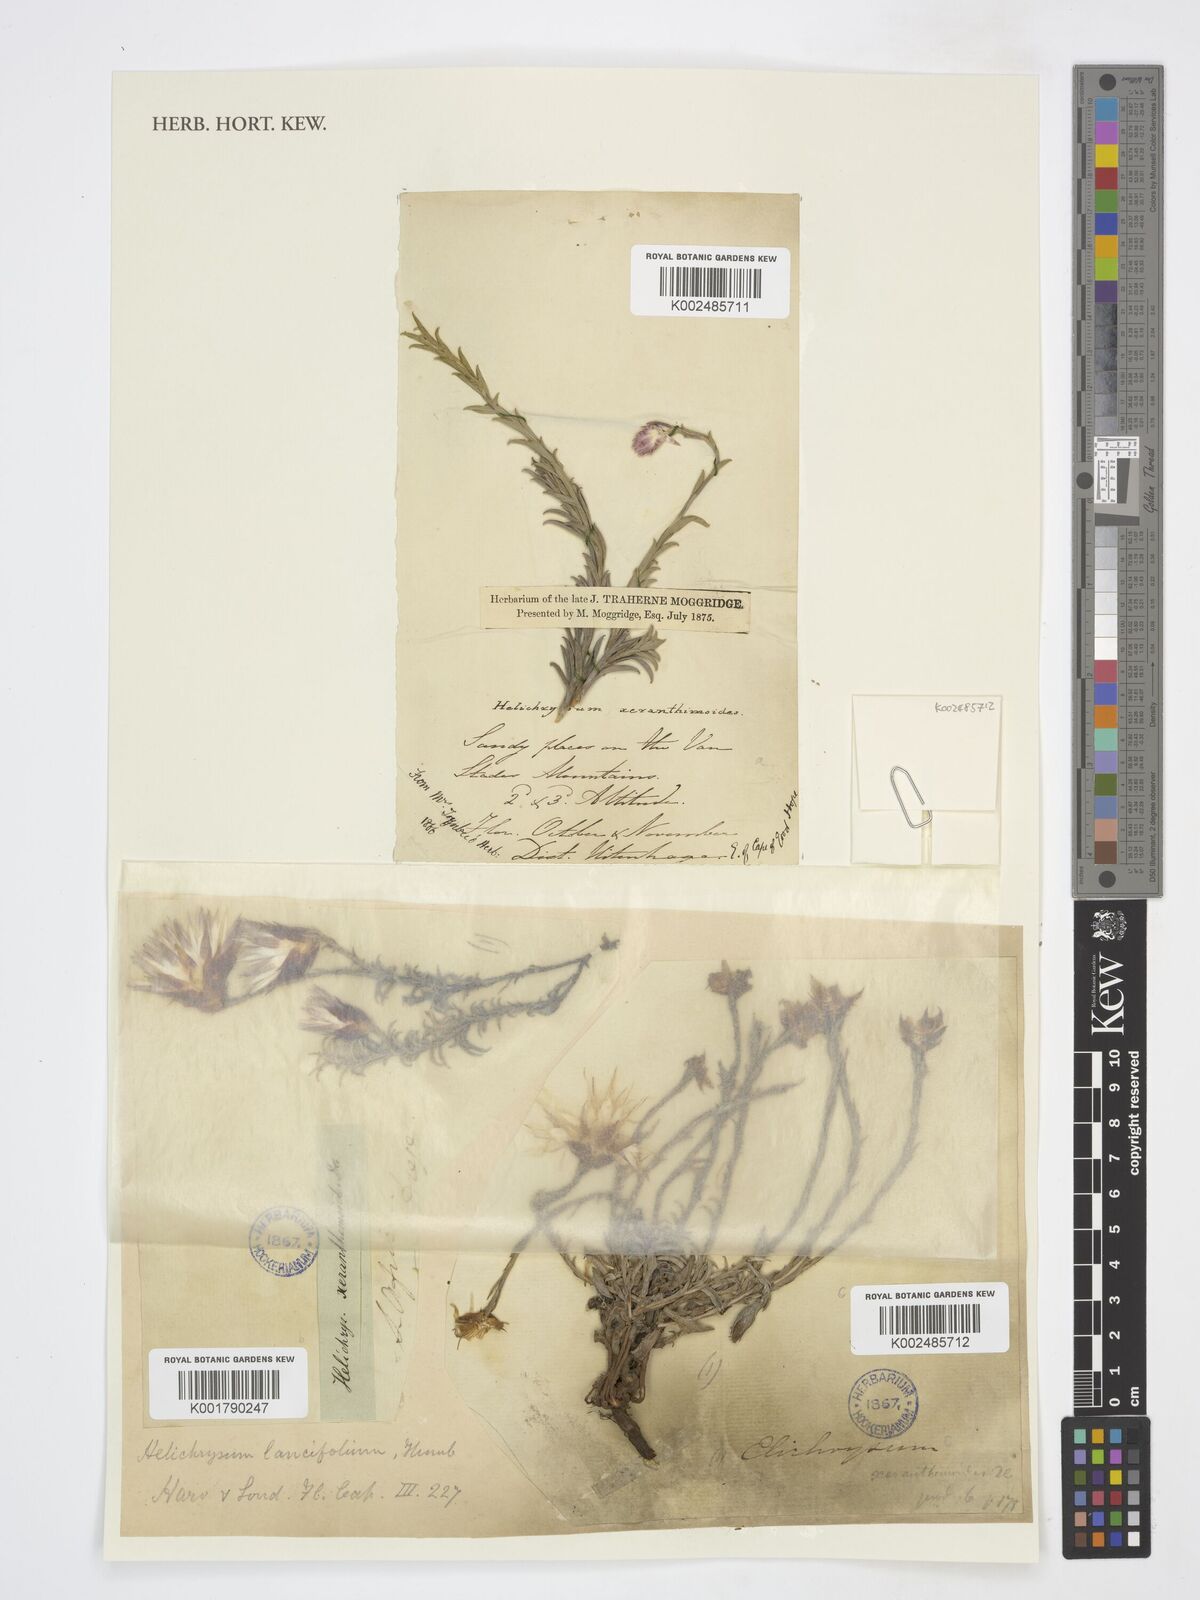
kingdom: Plantae
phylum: Tracheophyta
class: Magnoliopsida
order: Asterales
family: Asteraceae
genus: Helichrysum
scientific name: Helichrysum lancifolium
